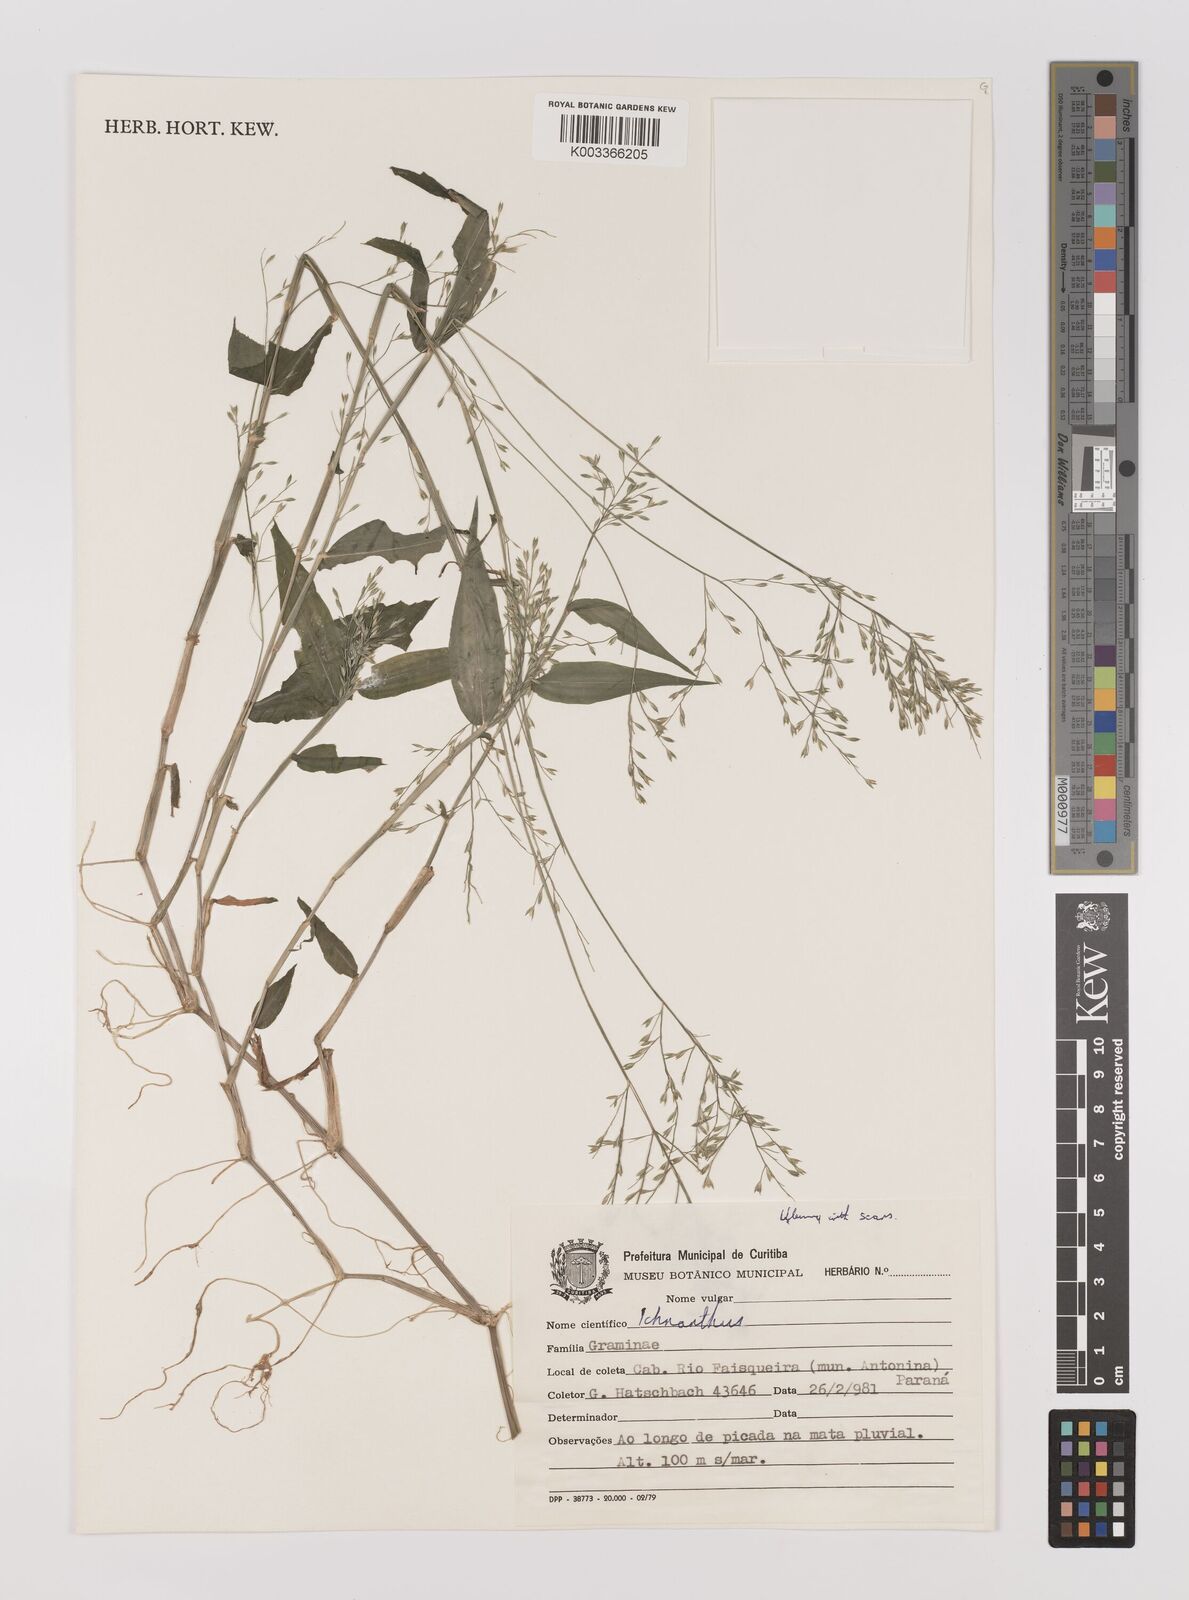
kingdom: Plantae
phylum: Tracheophyta
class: Liliopsida
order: Poales
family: Poaceae
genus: Ichnanthus
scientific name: Ichnanthus pallens
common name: Water grass
